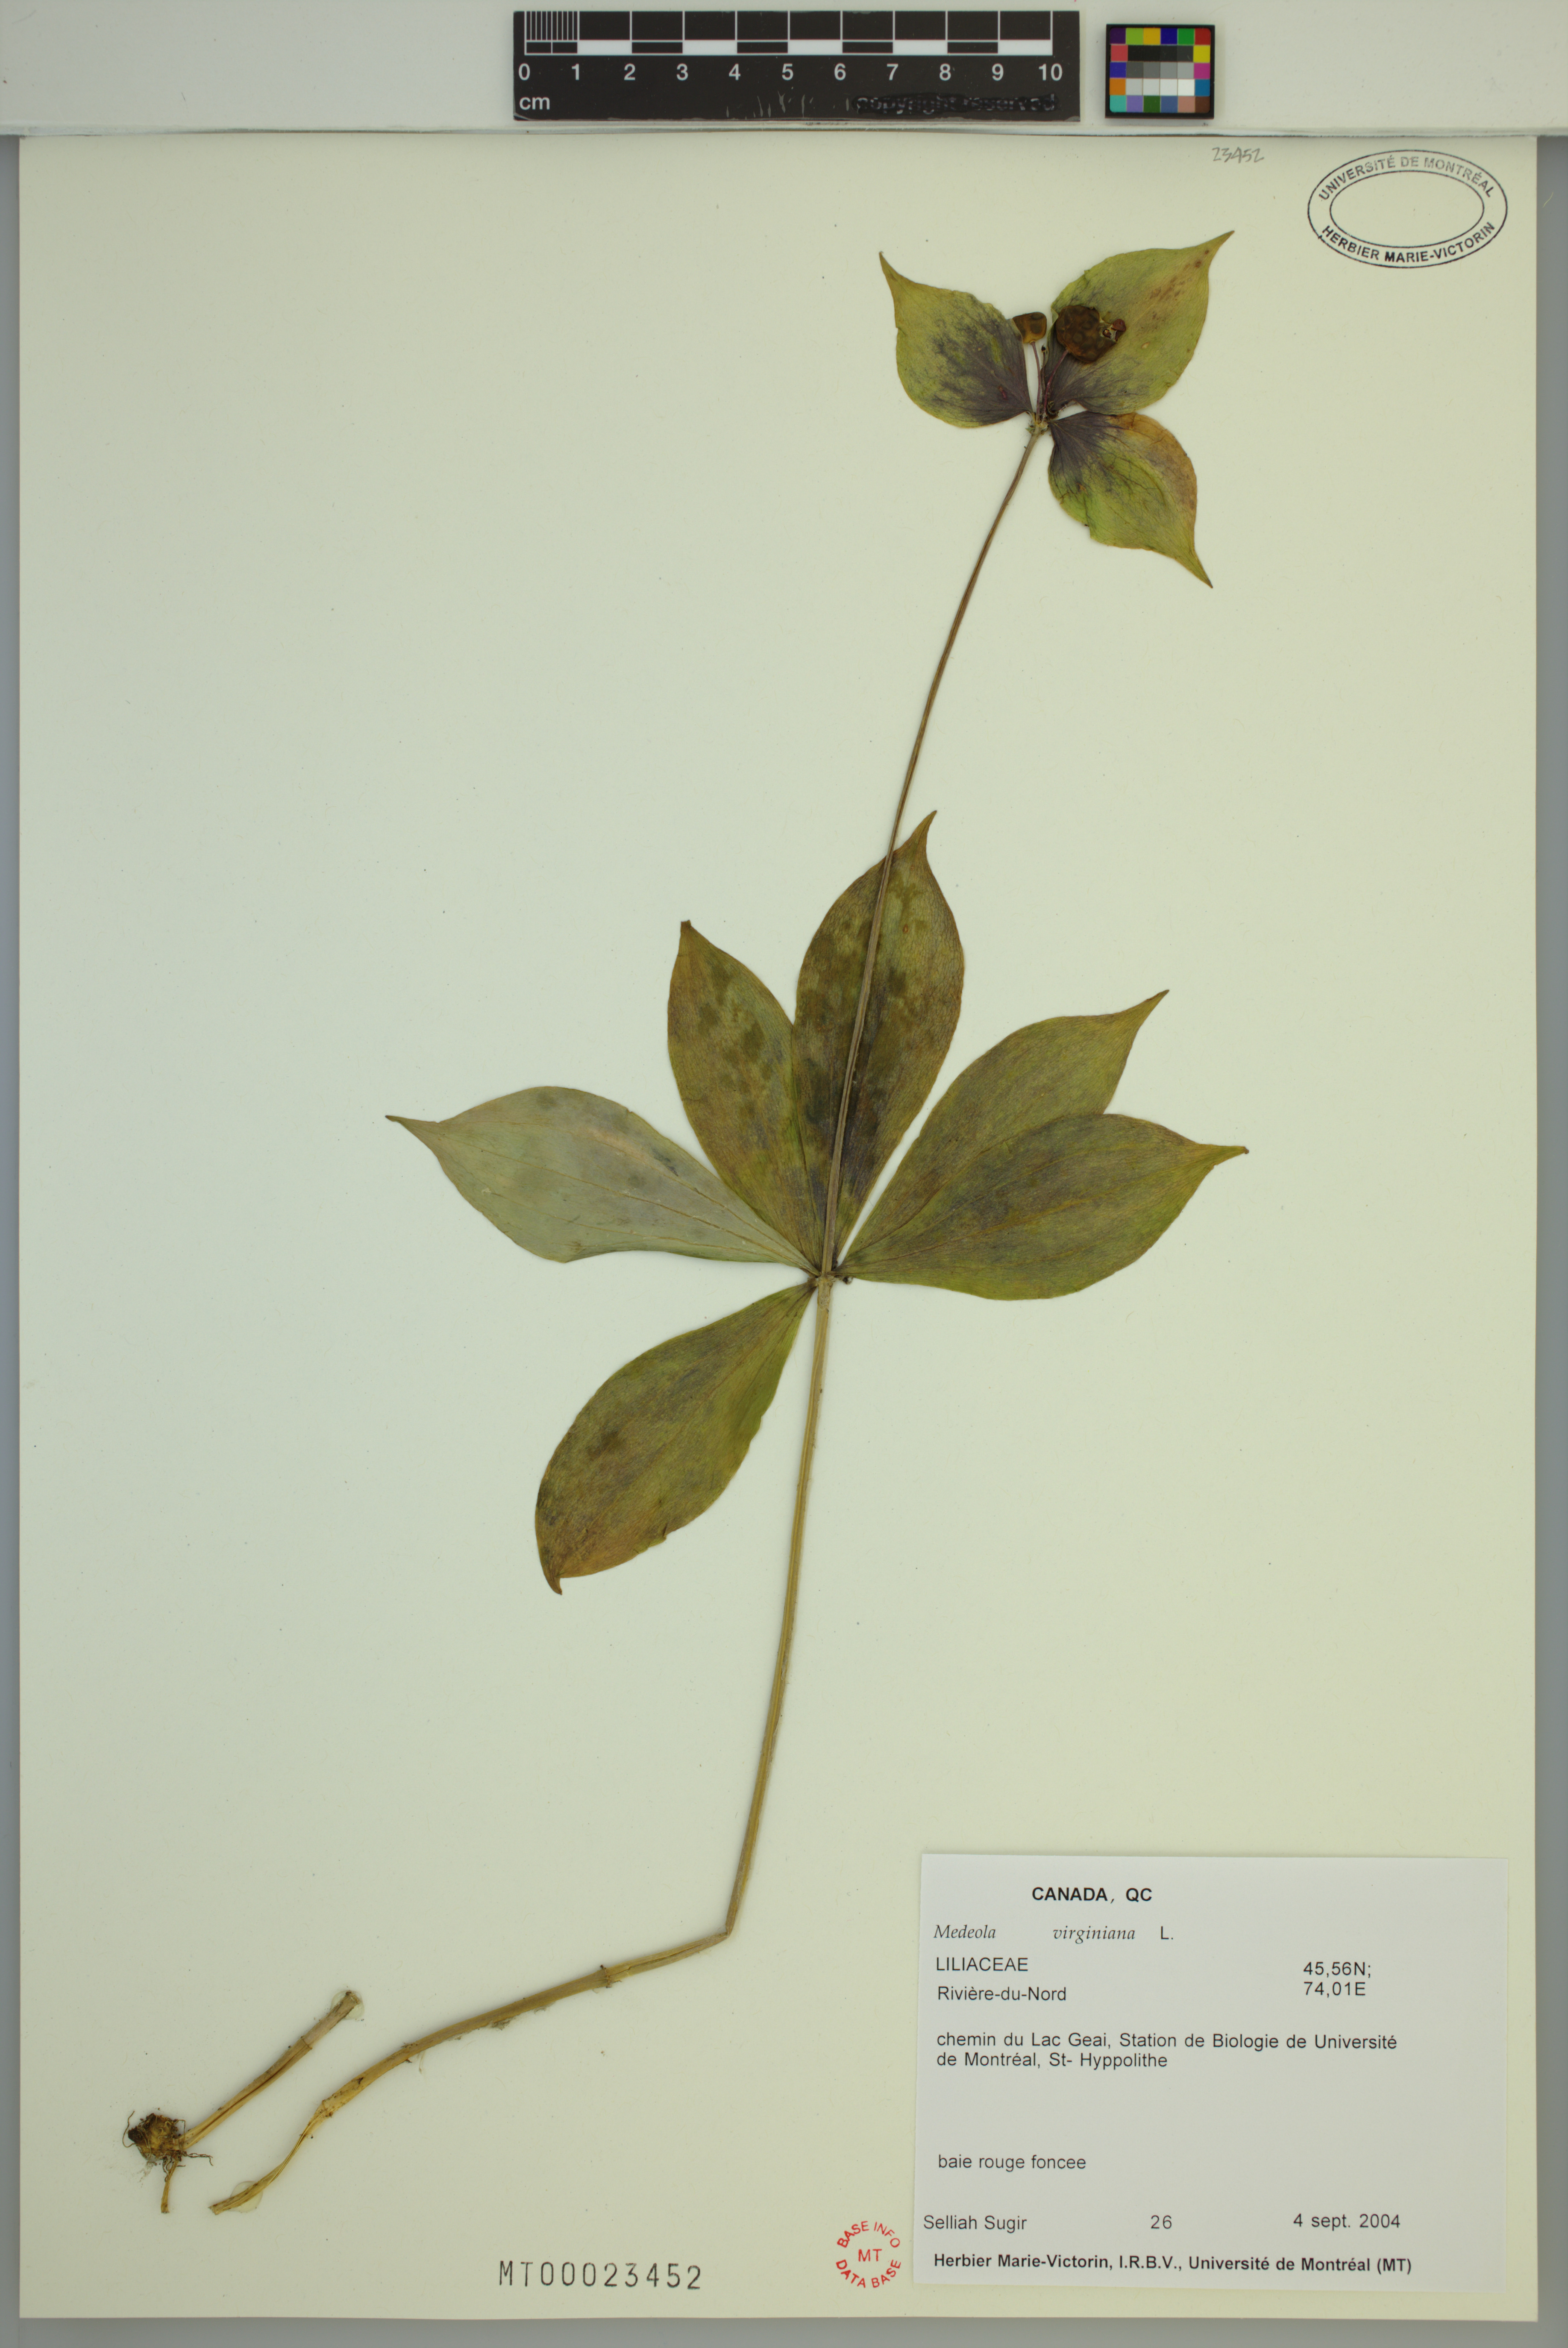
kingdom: Plantae
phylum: Tracheophyta
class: Liliopsida
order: Liliales
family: Liliaceae
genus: Medeola
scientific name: Medeola virginiana
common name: Indian cucumber-root
